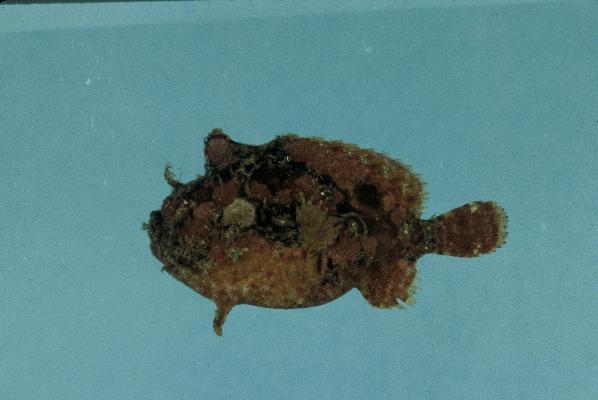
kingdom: Animalia
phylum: Chordata
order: Lophiiformes
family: Antennariidae
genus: Antennatus
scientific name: Antennatus coccineus
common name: Scarlet frogfish
